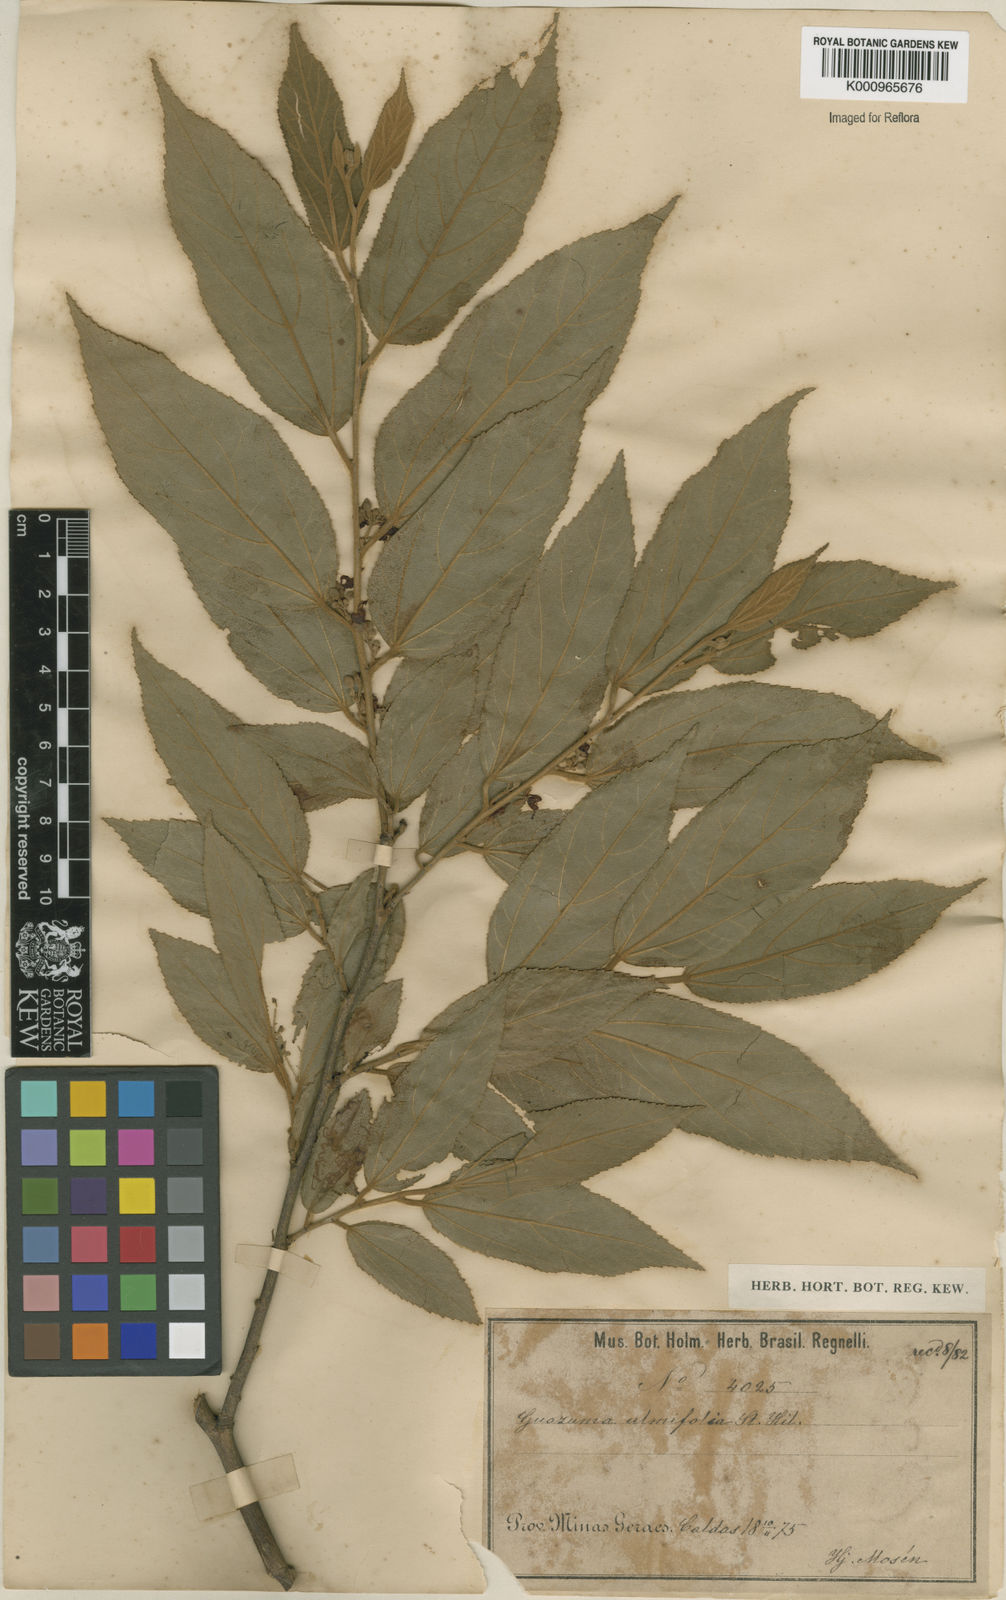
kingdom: Plantae
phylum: Tracheophyta
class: Magnoliopsida
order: Malvales
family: Malvaceae
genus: Guazuma
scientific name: Guazuma ulmifolia
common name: Bastard-cedar
